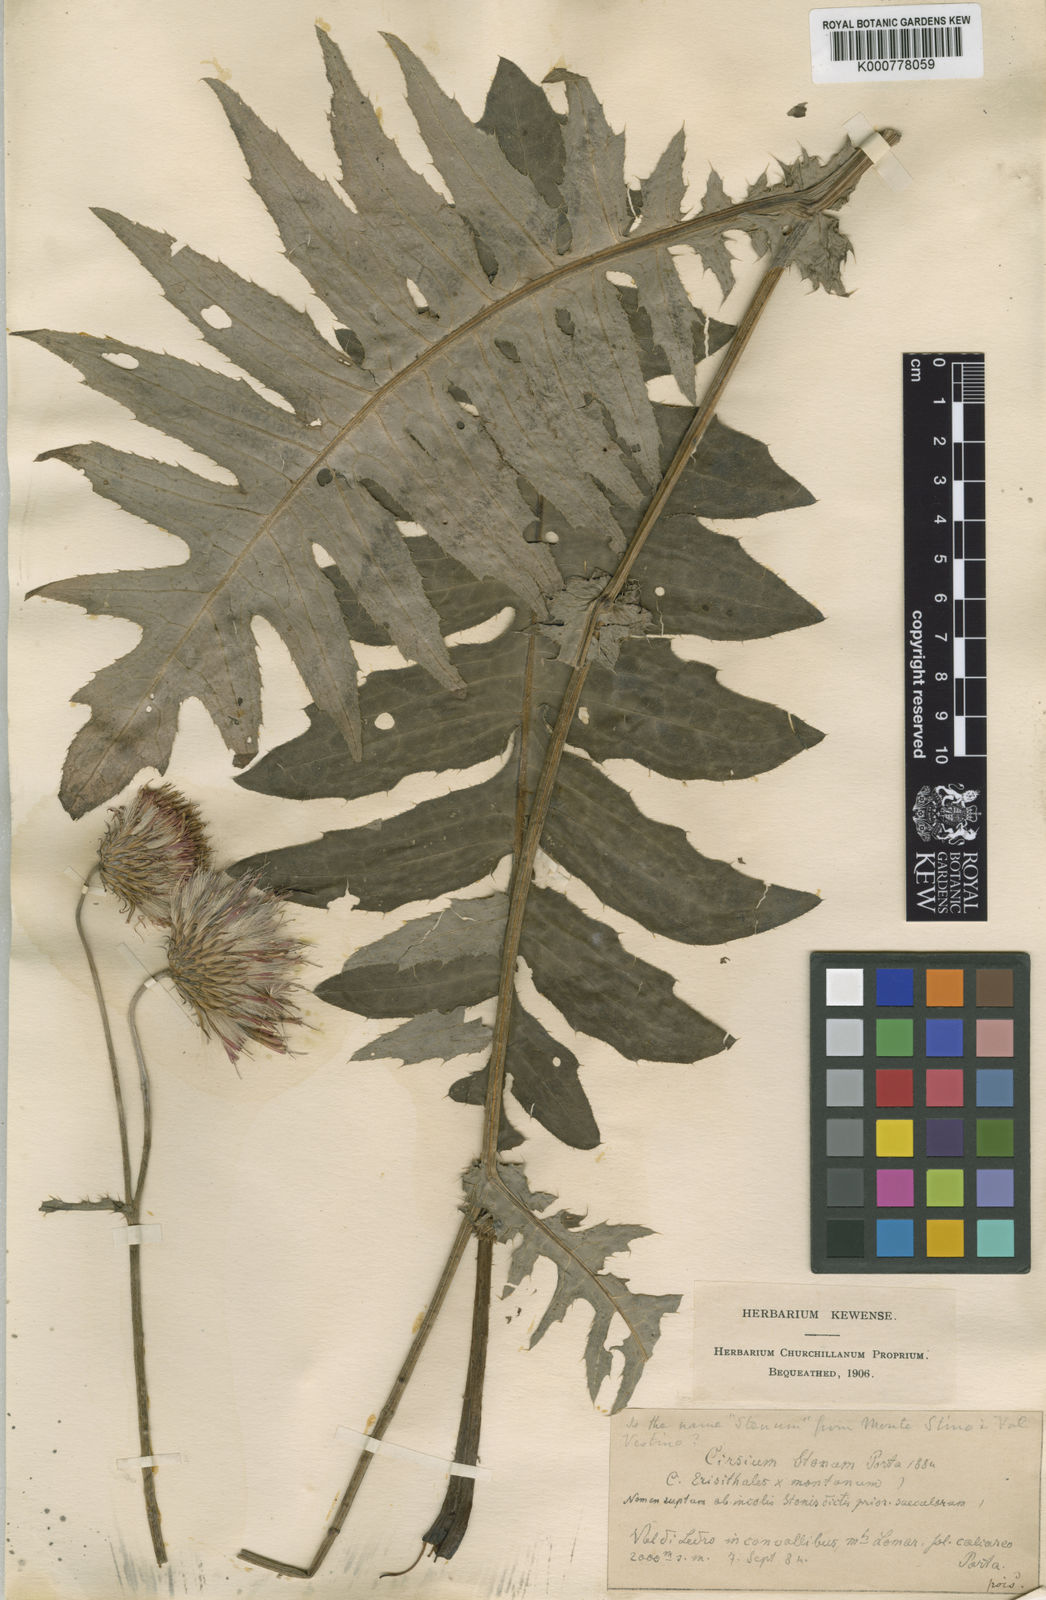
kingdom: Plantae
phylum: Tracheophyta
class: Magnoliopsida
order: Asterales
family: Asteraceae
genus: Cirsium
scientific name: Cirsium
